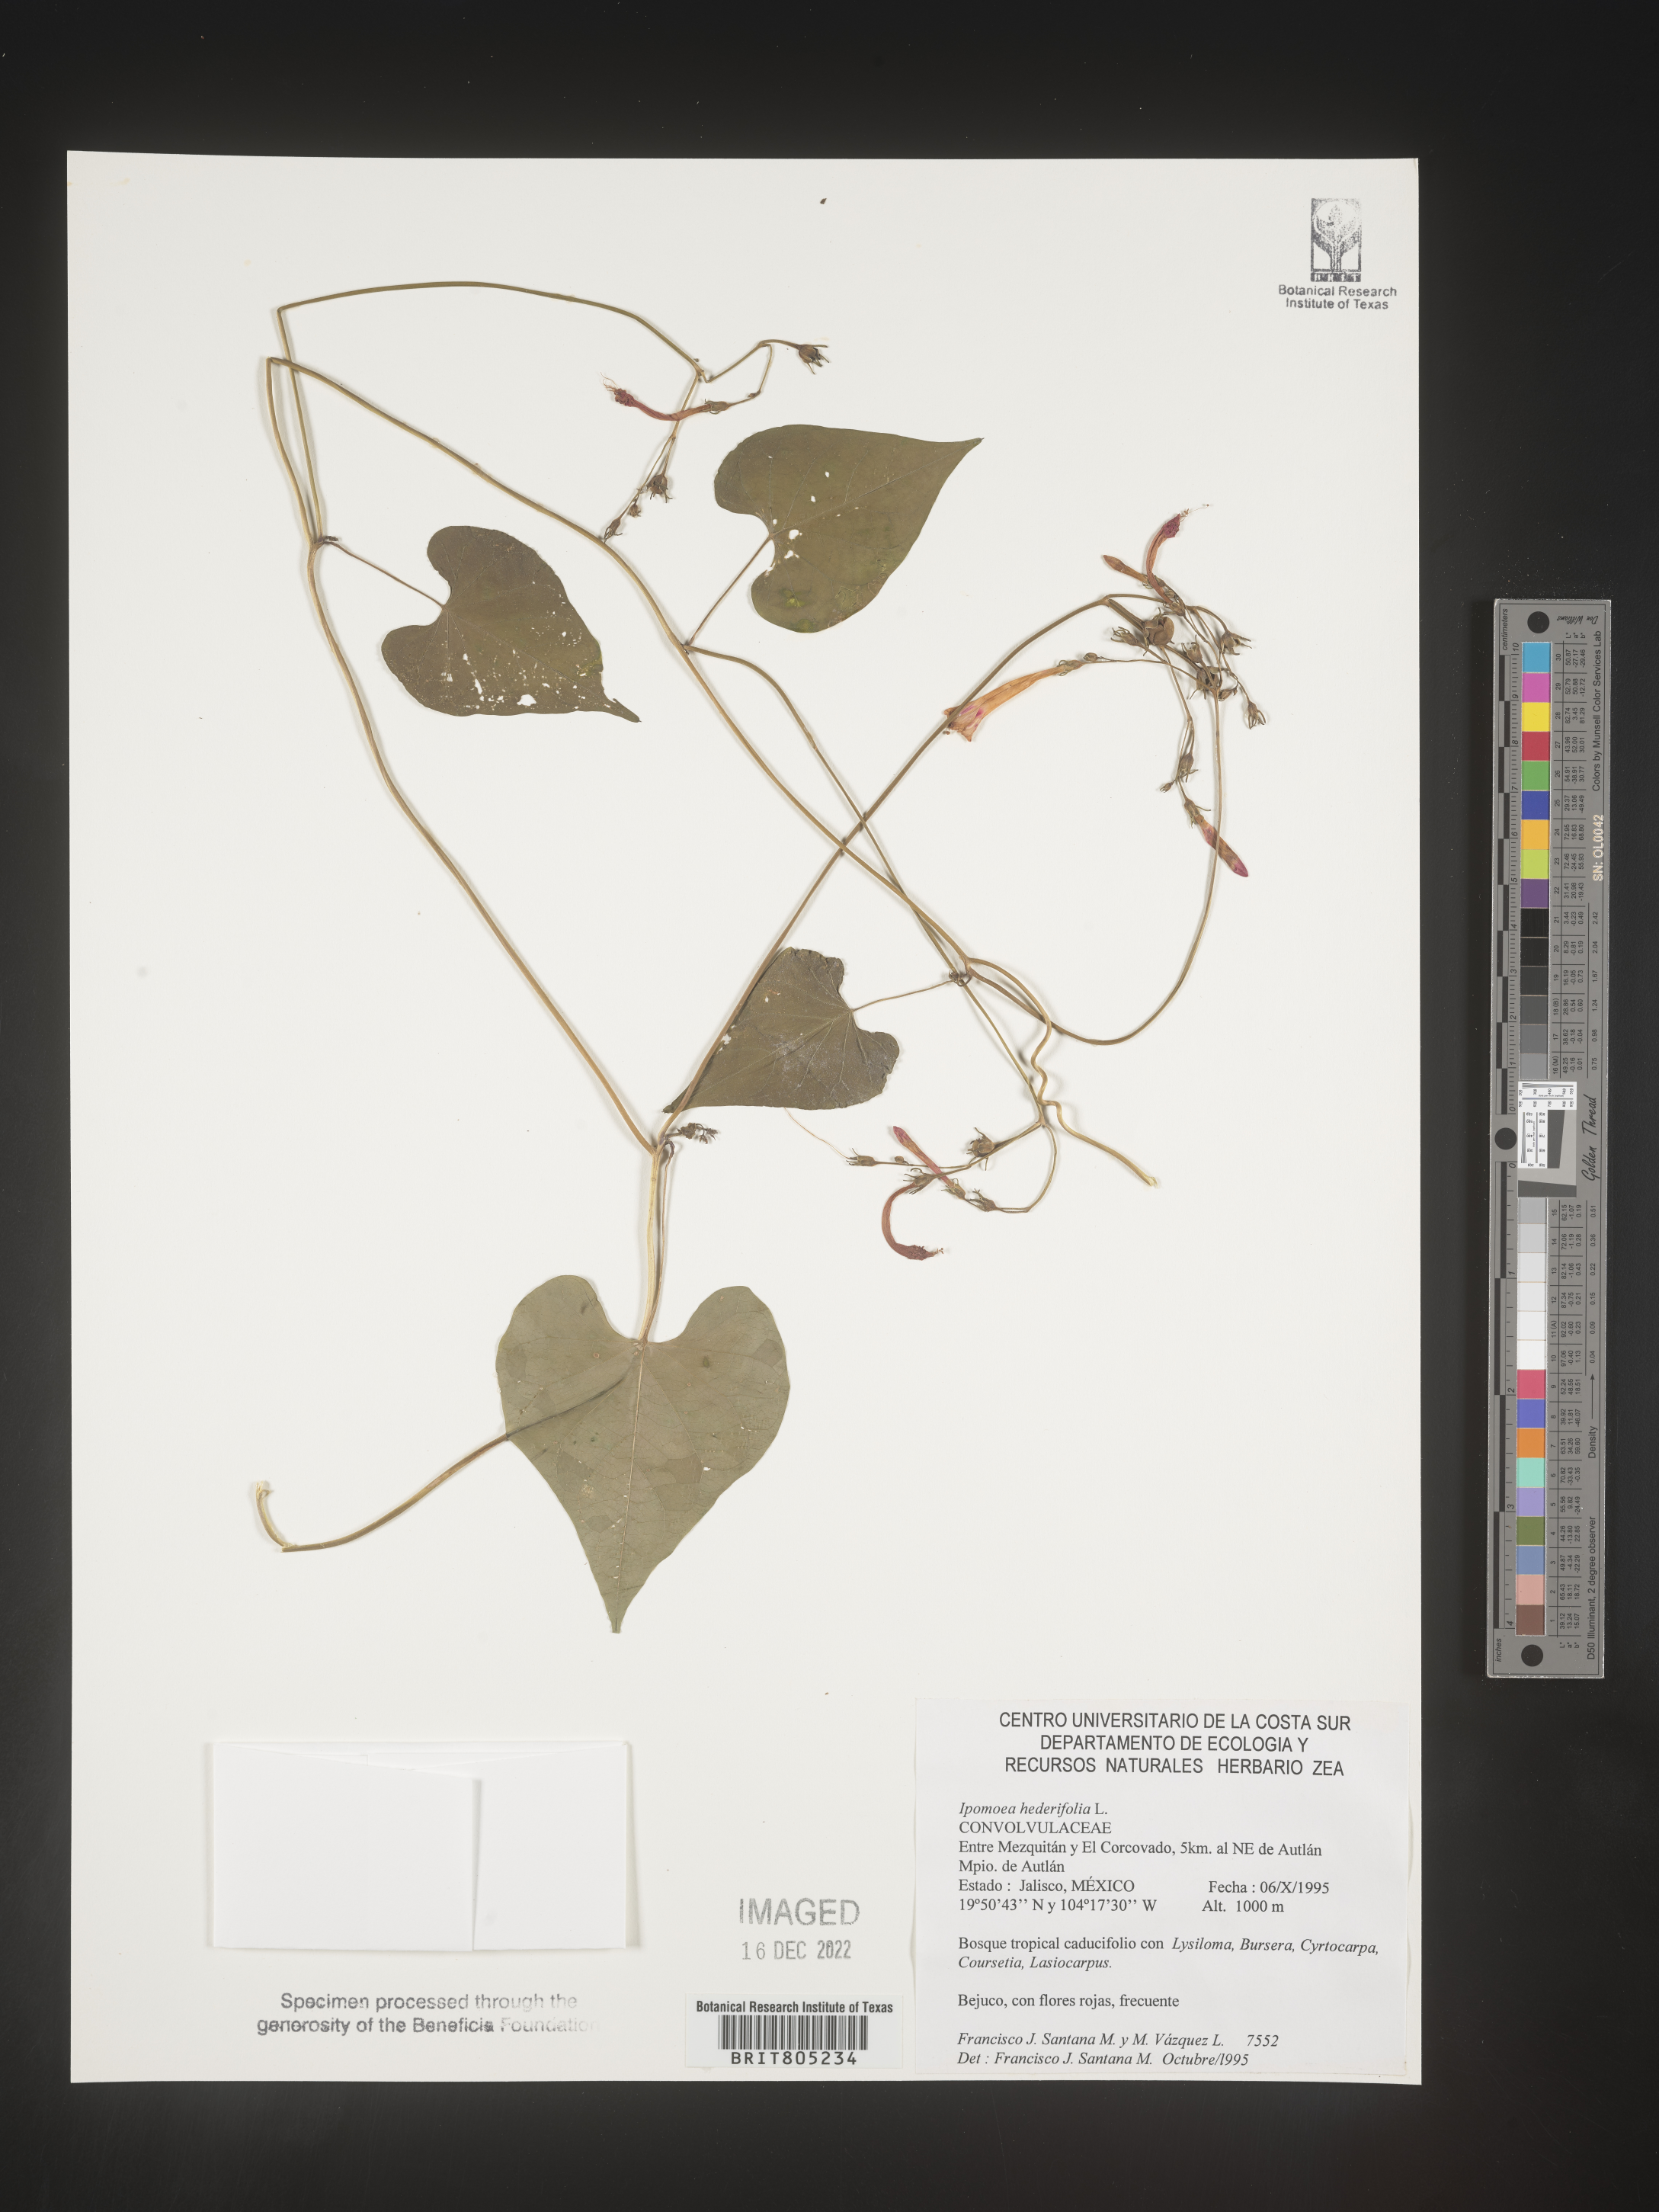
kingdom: Plantae
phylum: Tracheophyta
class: Magnoliopsida
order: Solanales
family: Convolvulaceae
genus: Ipomoea
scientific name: Ipomoea
